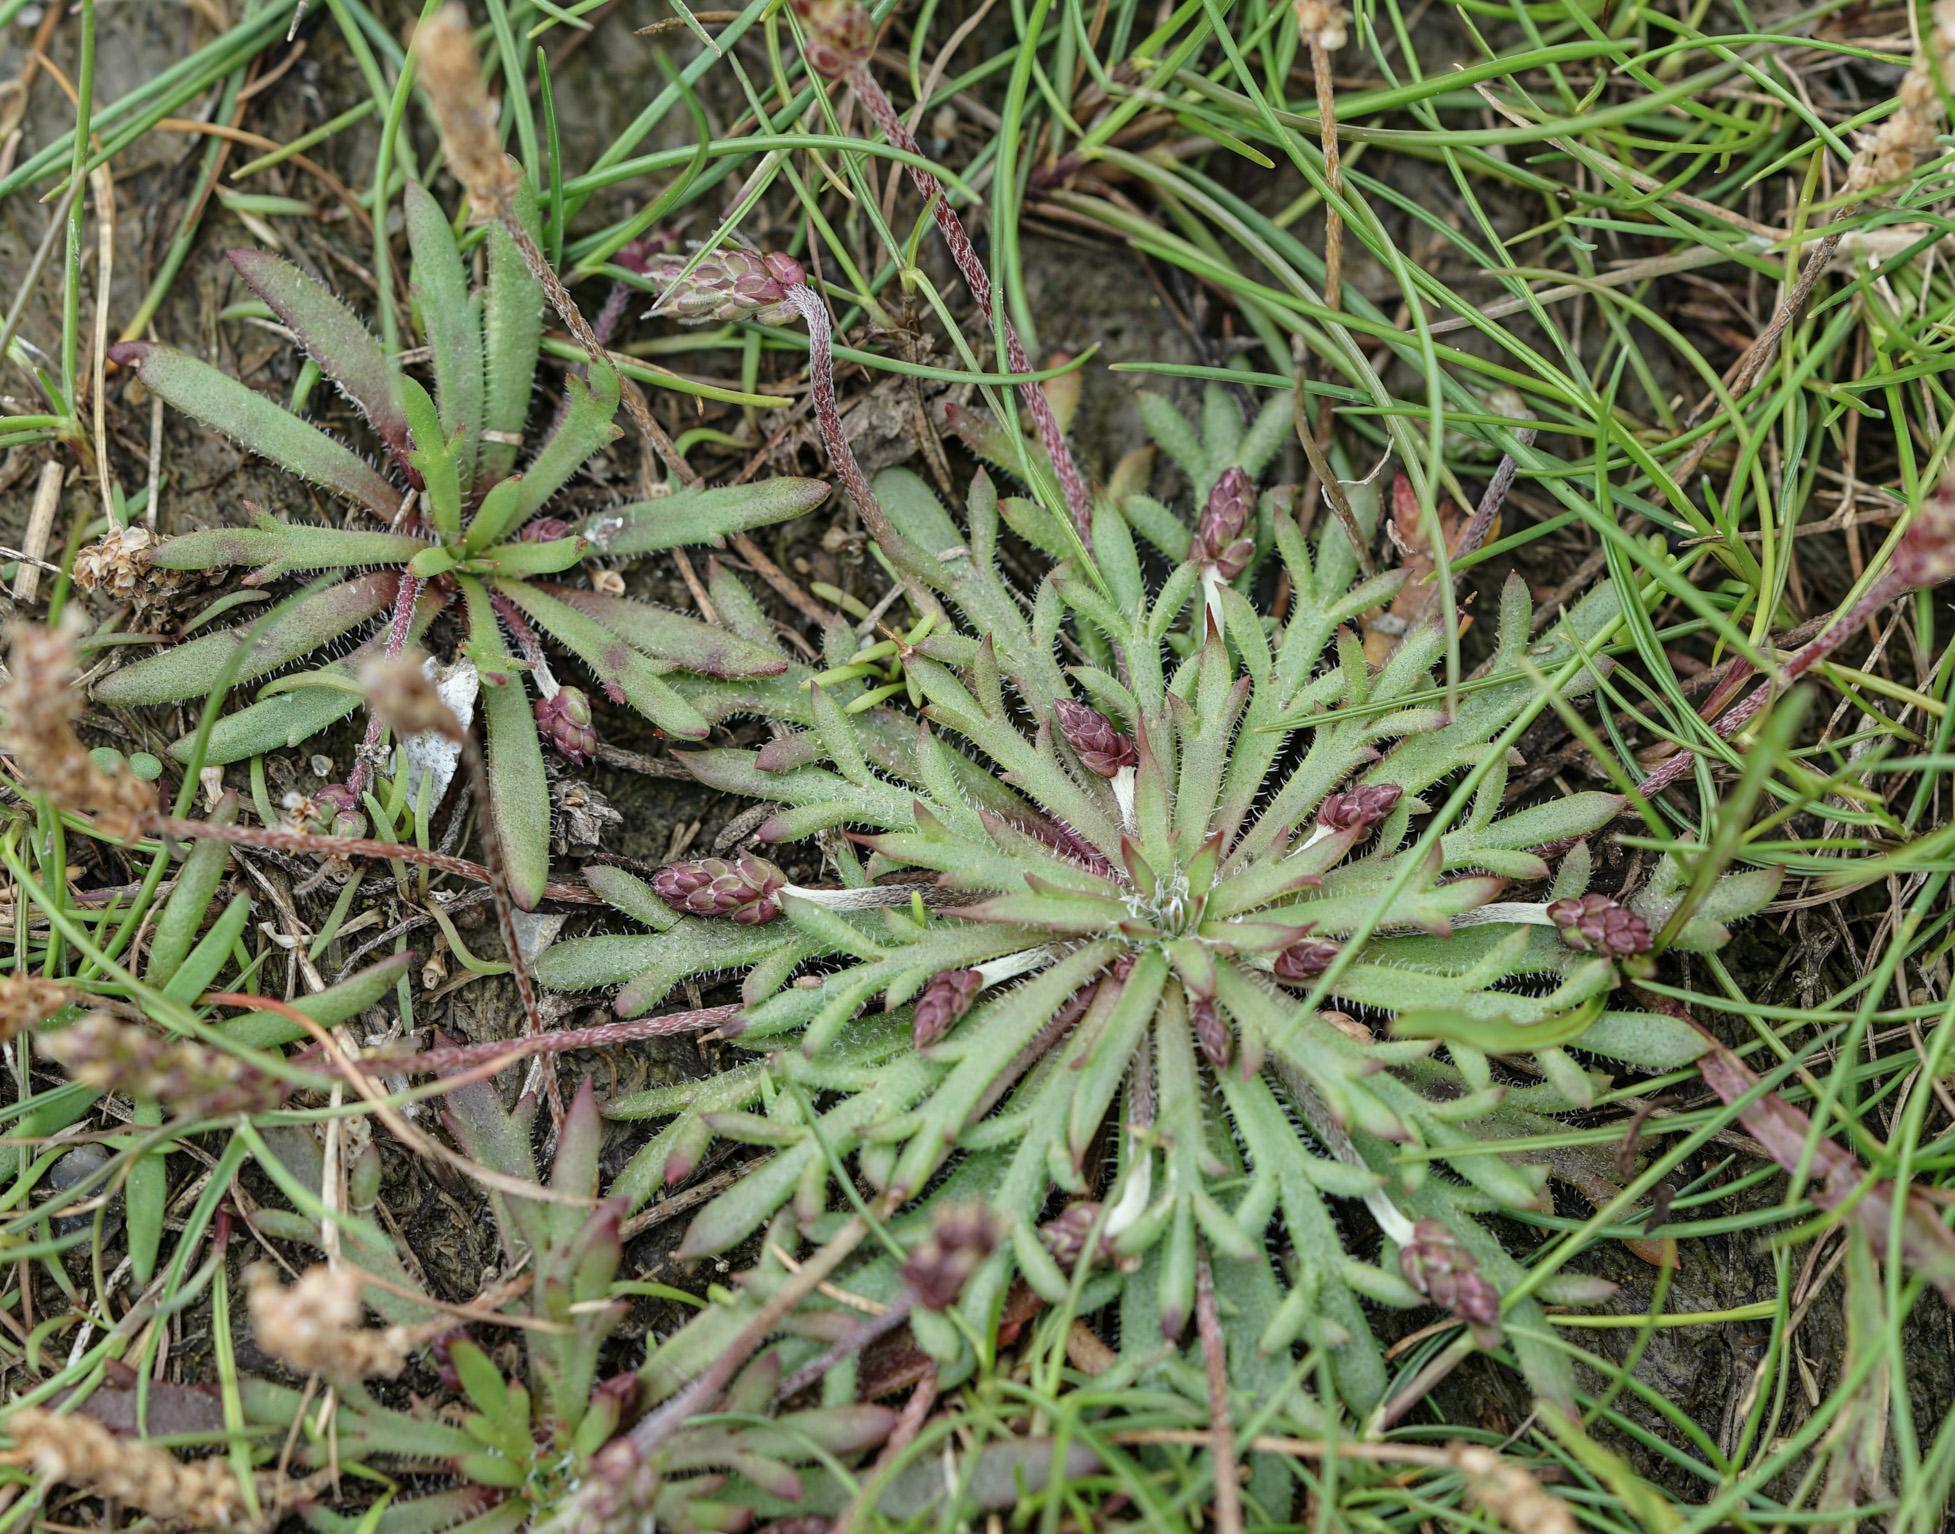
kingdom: Plantae
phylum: Tracheophyta
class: Magnoliopsida
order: Lamiales
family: Plantaginaceae
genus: Plantago
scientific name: Plantago coronopus
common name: Buck's-horn plantain
